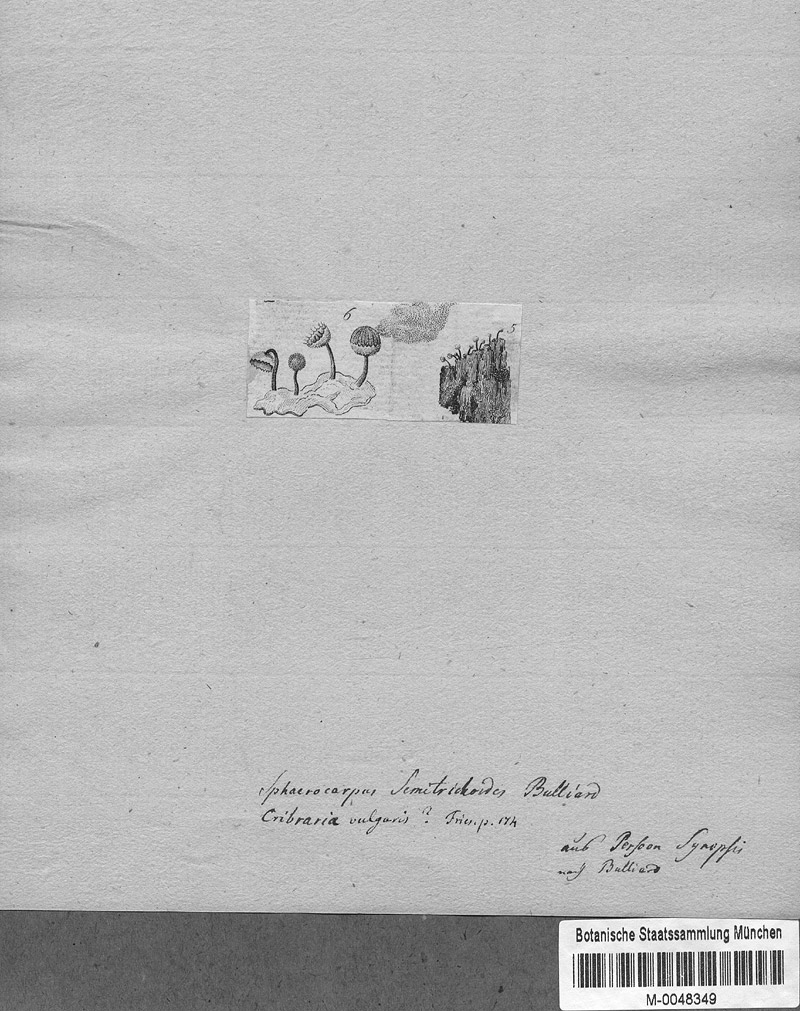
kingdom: Protozoa
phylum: Mycetozoa
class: Myxomycetes
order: Cribrariales
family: Cribrariaceae
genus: Cribraria
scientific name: Cribraria vulgaris
